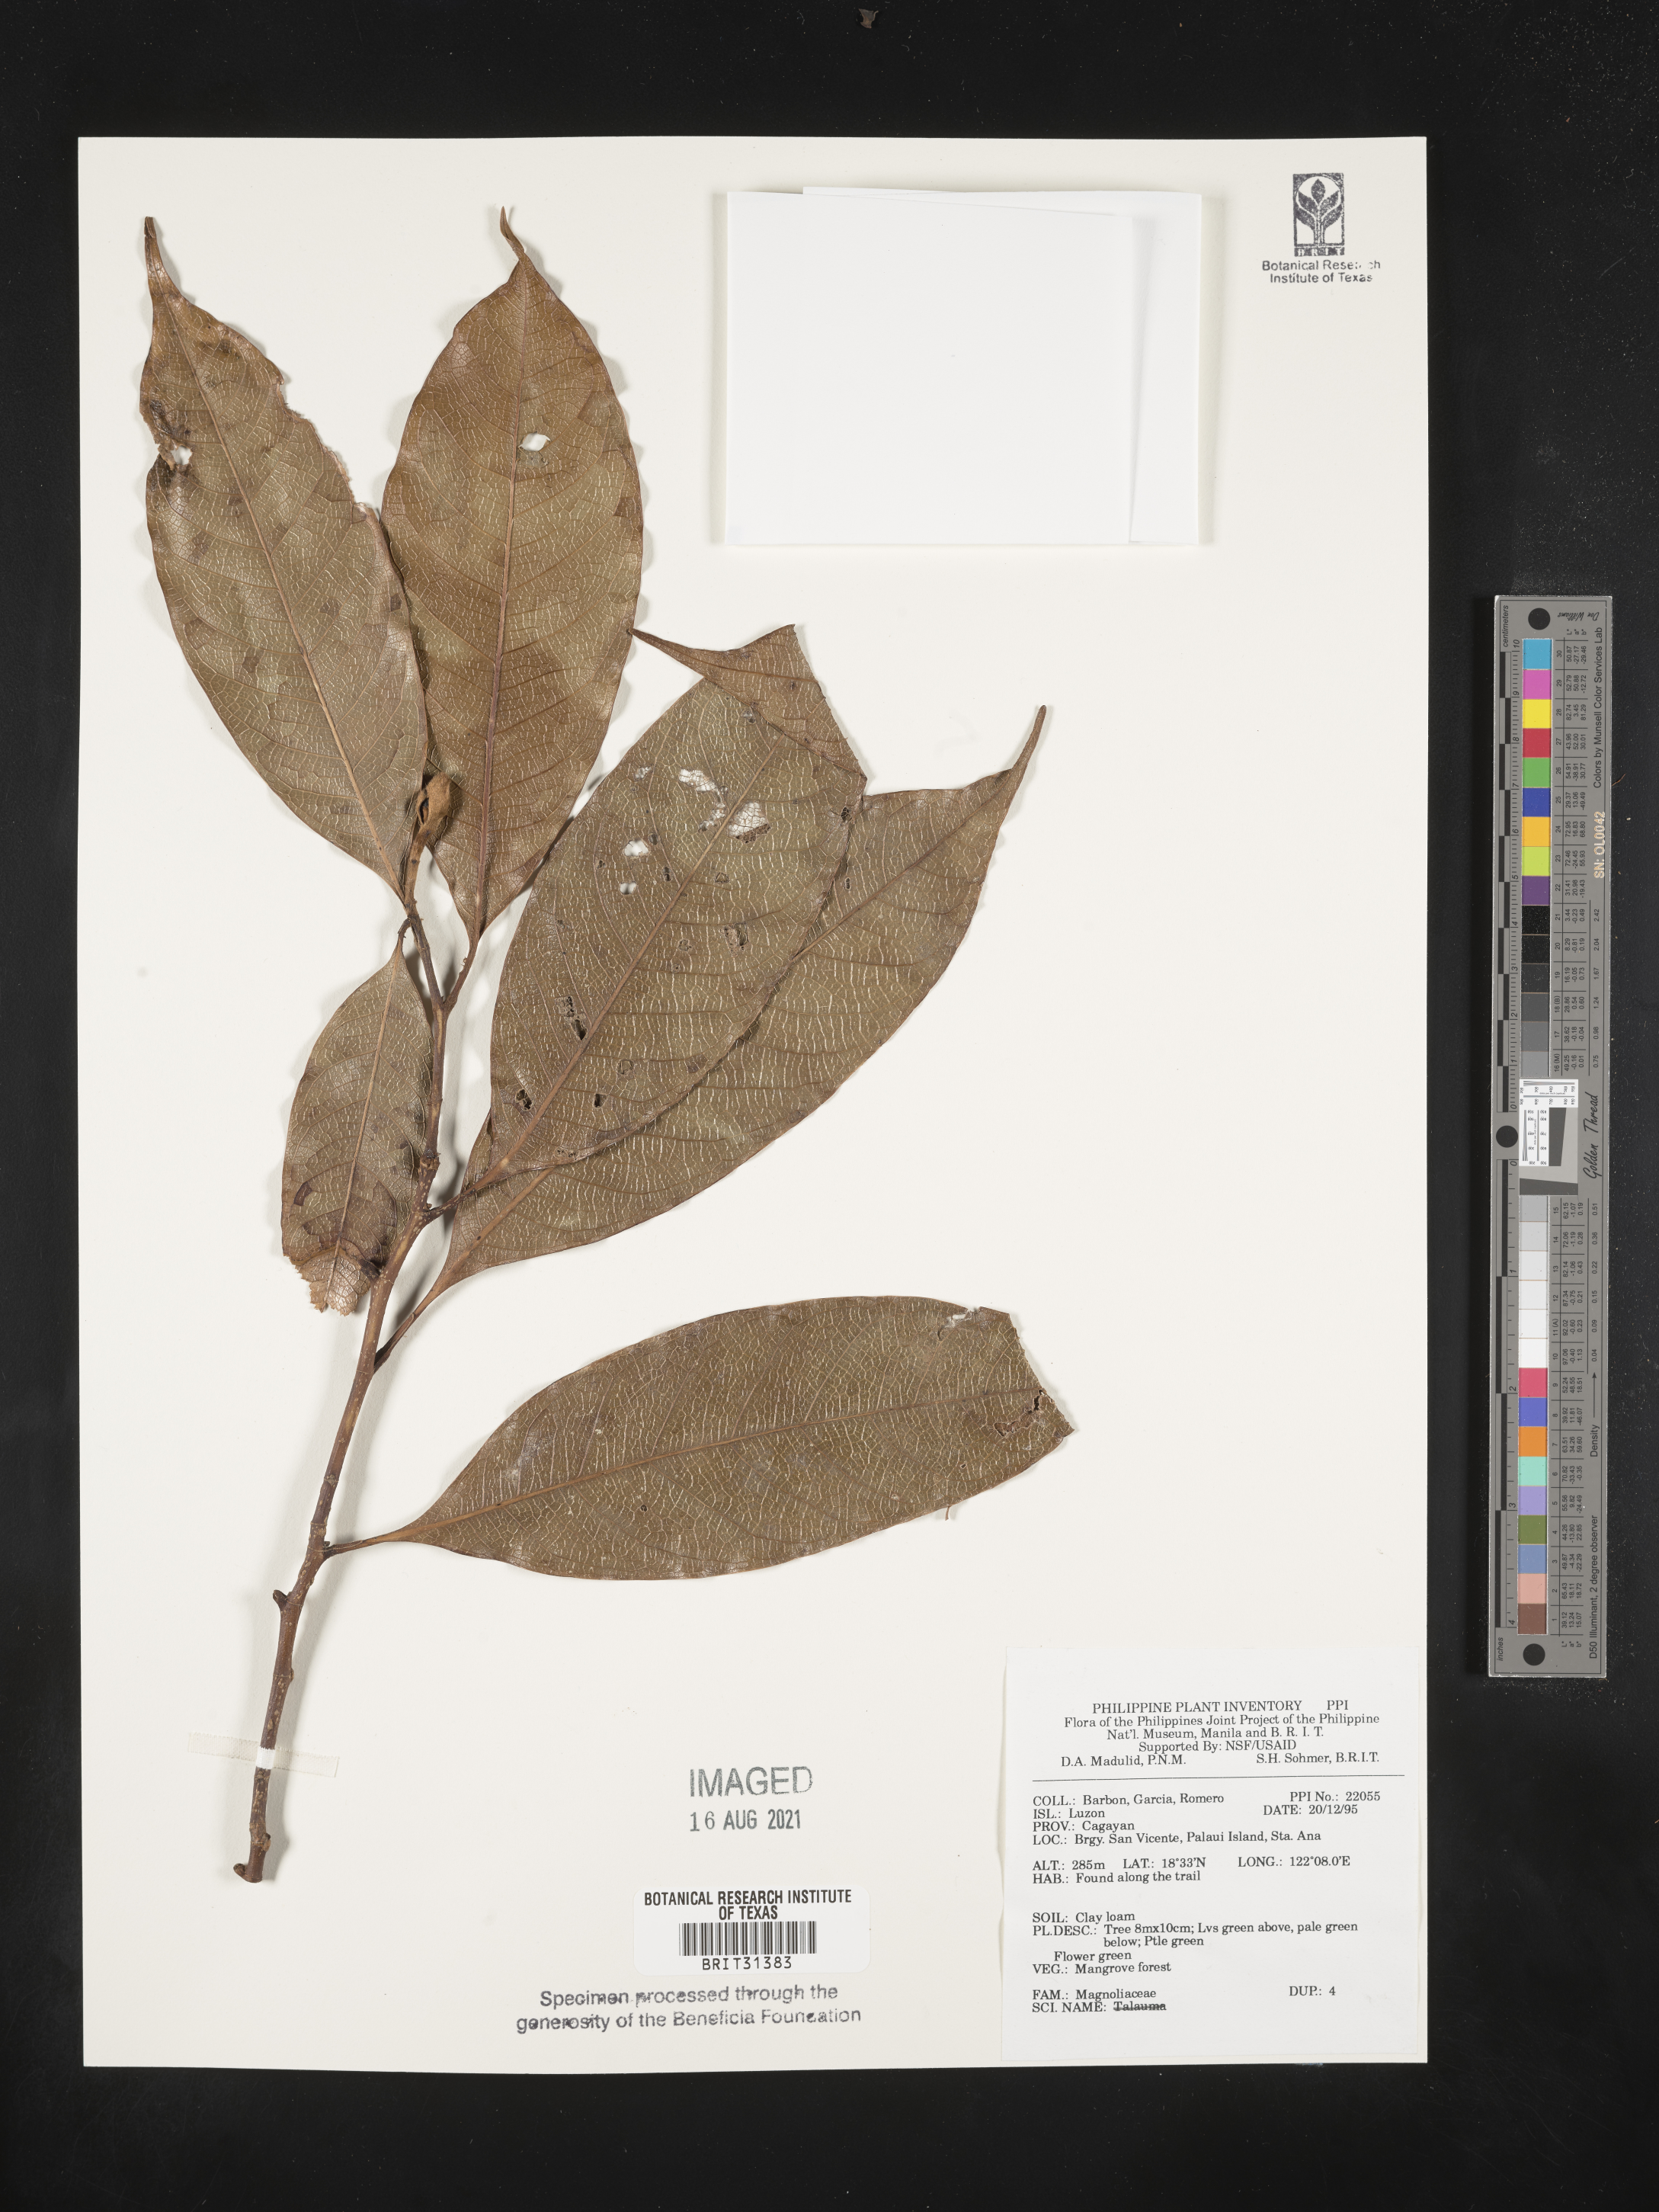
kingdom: Plantae
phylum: Tracheophyta
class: Magnoliopsida
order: Magnoliales
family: Magnoliaceae
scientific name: Magnoliaceae
